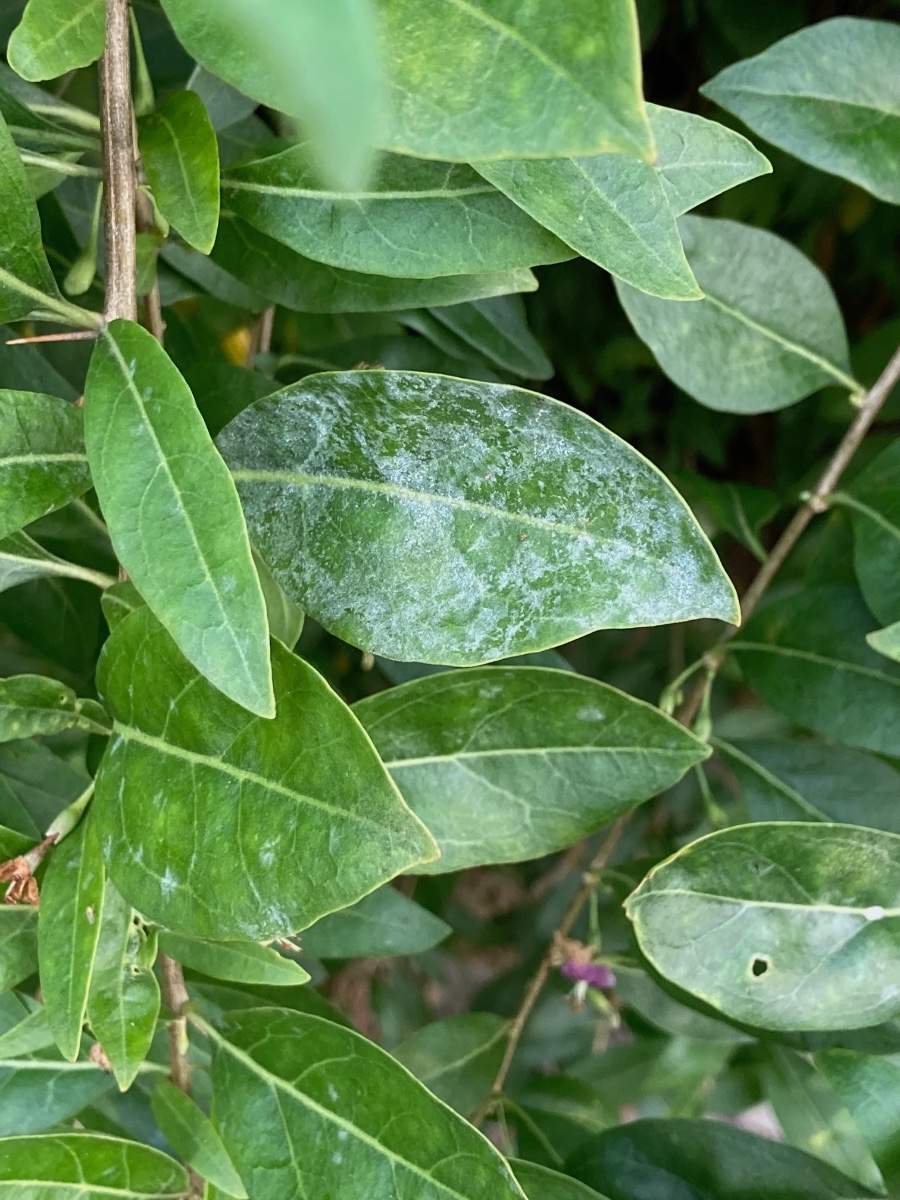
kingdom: Fungi
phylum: Ascomycota
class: Leotiomycetes
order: Helotiales
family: Erysiphaceae
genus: Erysiphe
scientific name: Erysiphe mougeotii
